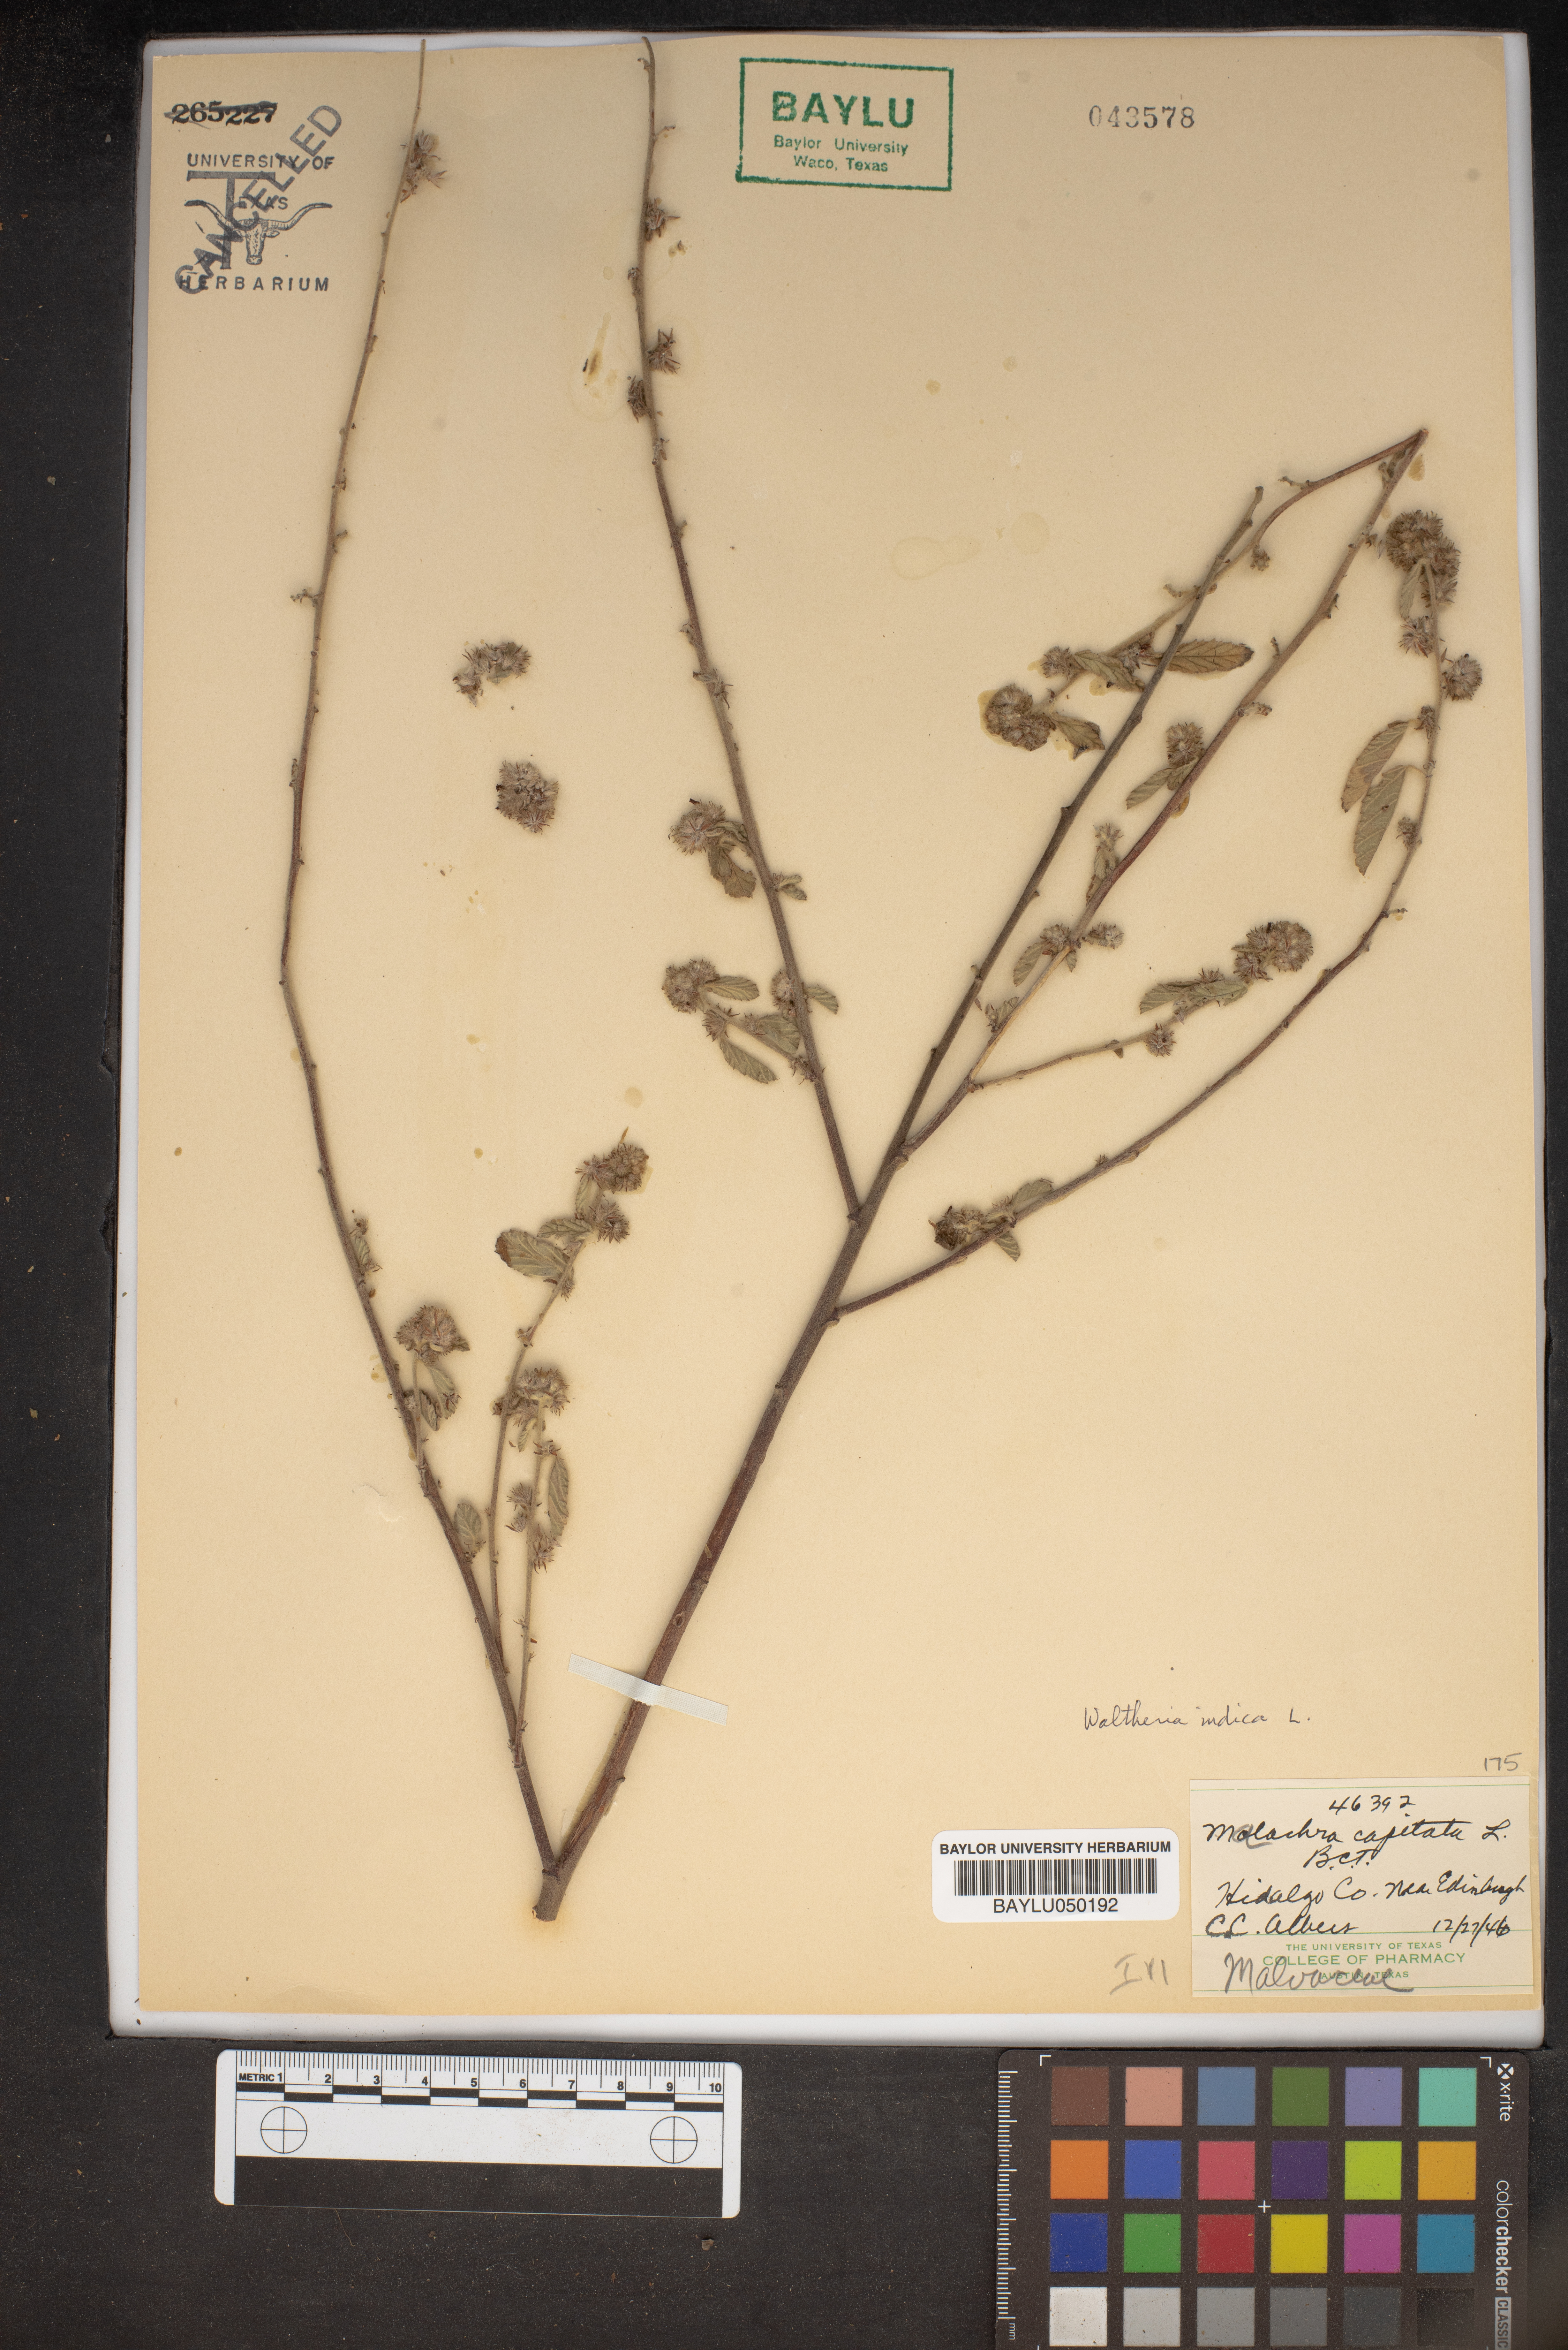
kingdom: Plantae
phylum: Tracheophyta
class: Magnoliopsida
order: Malvales
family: Malvaceae
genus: Malachra
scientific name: Malachra capitata
